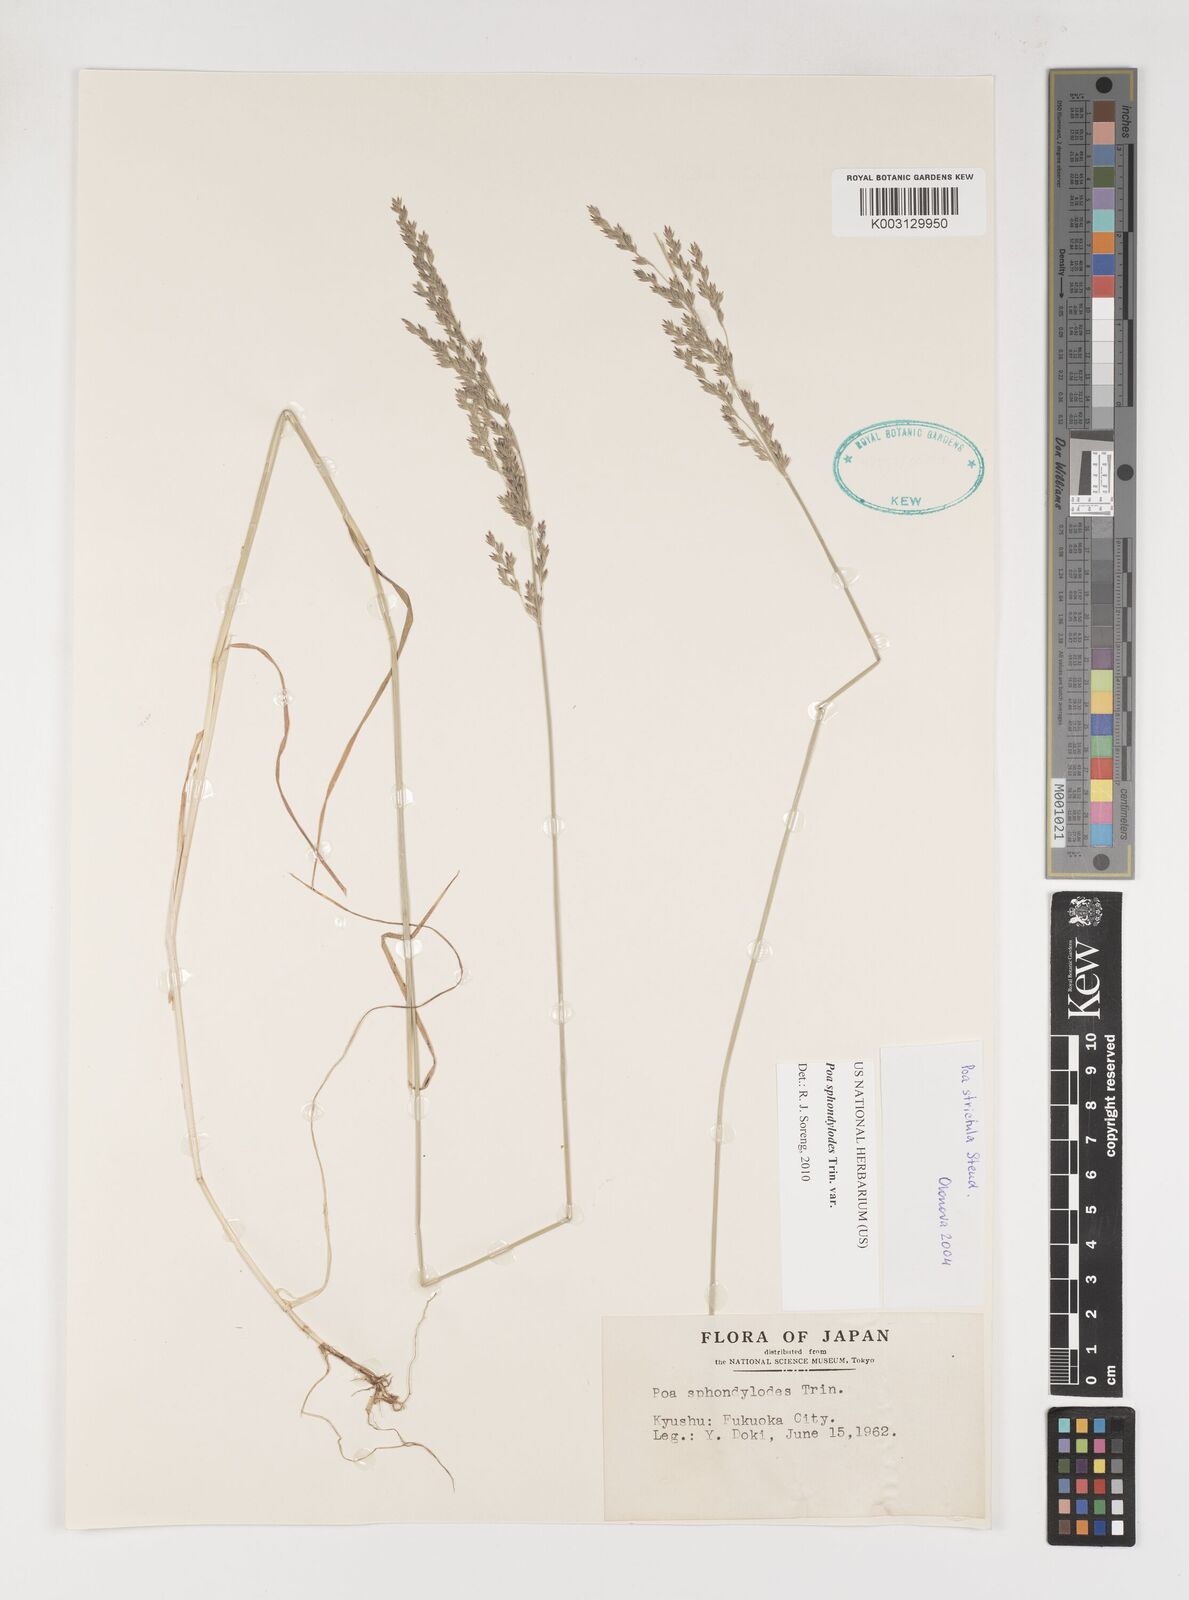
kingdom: Plantae
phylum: Tracheophyta
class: Liliopsida
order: Poales
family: Poaceae
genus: Poa
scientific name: Poa sphondylodes
